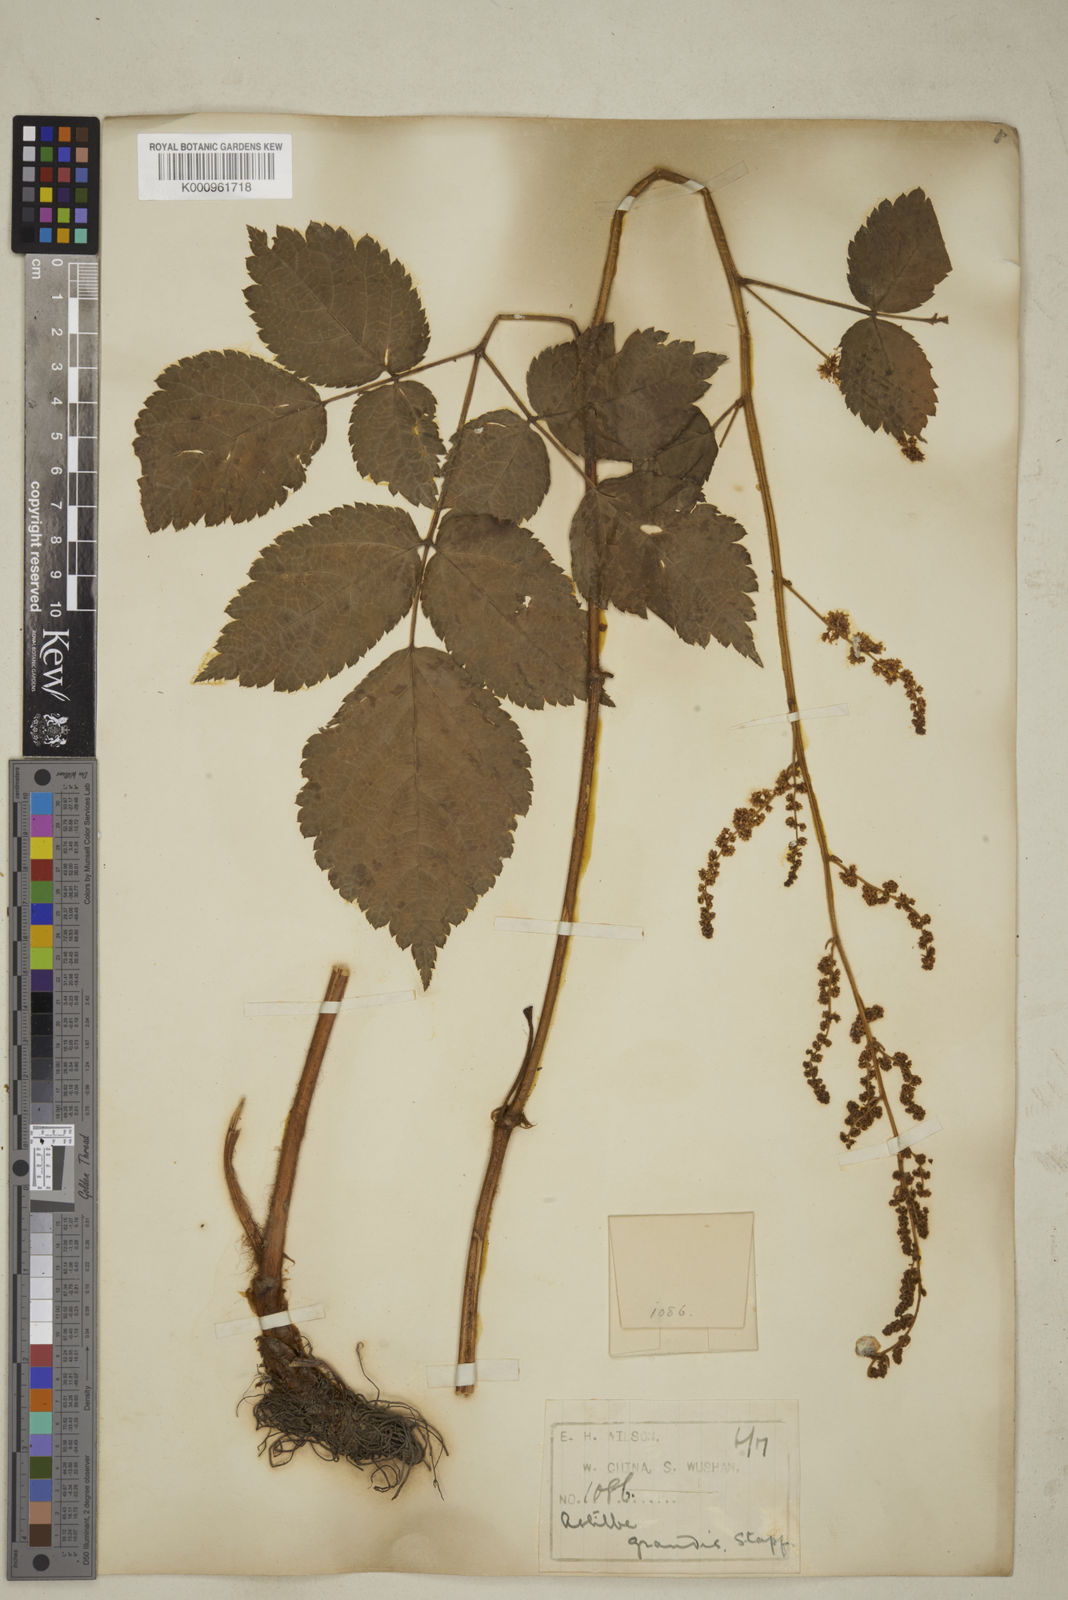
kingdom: Plantae
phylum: Tracheophyta
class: Magnoliopsida
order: Saxifragales
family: Saxifragaceae
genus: Astilbe
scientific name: Astilbe grandis
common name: Korean astilbe
